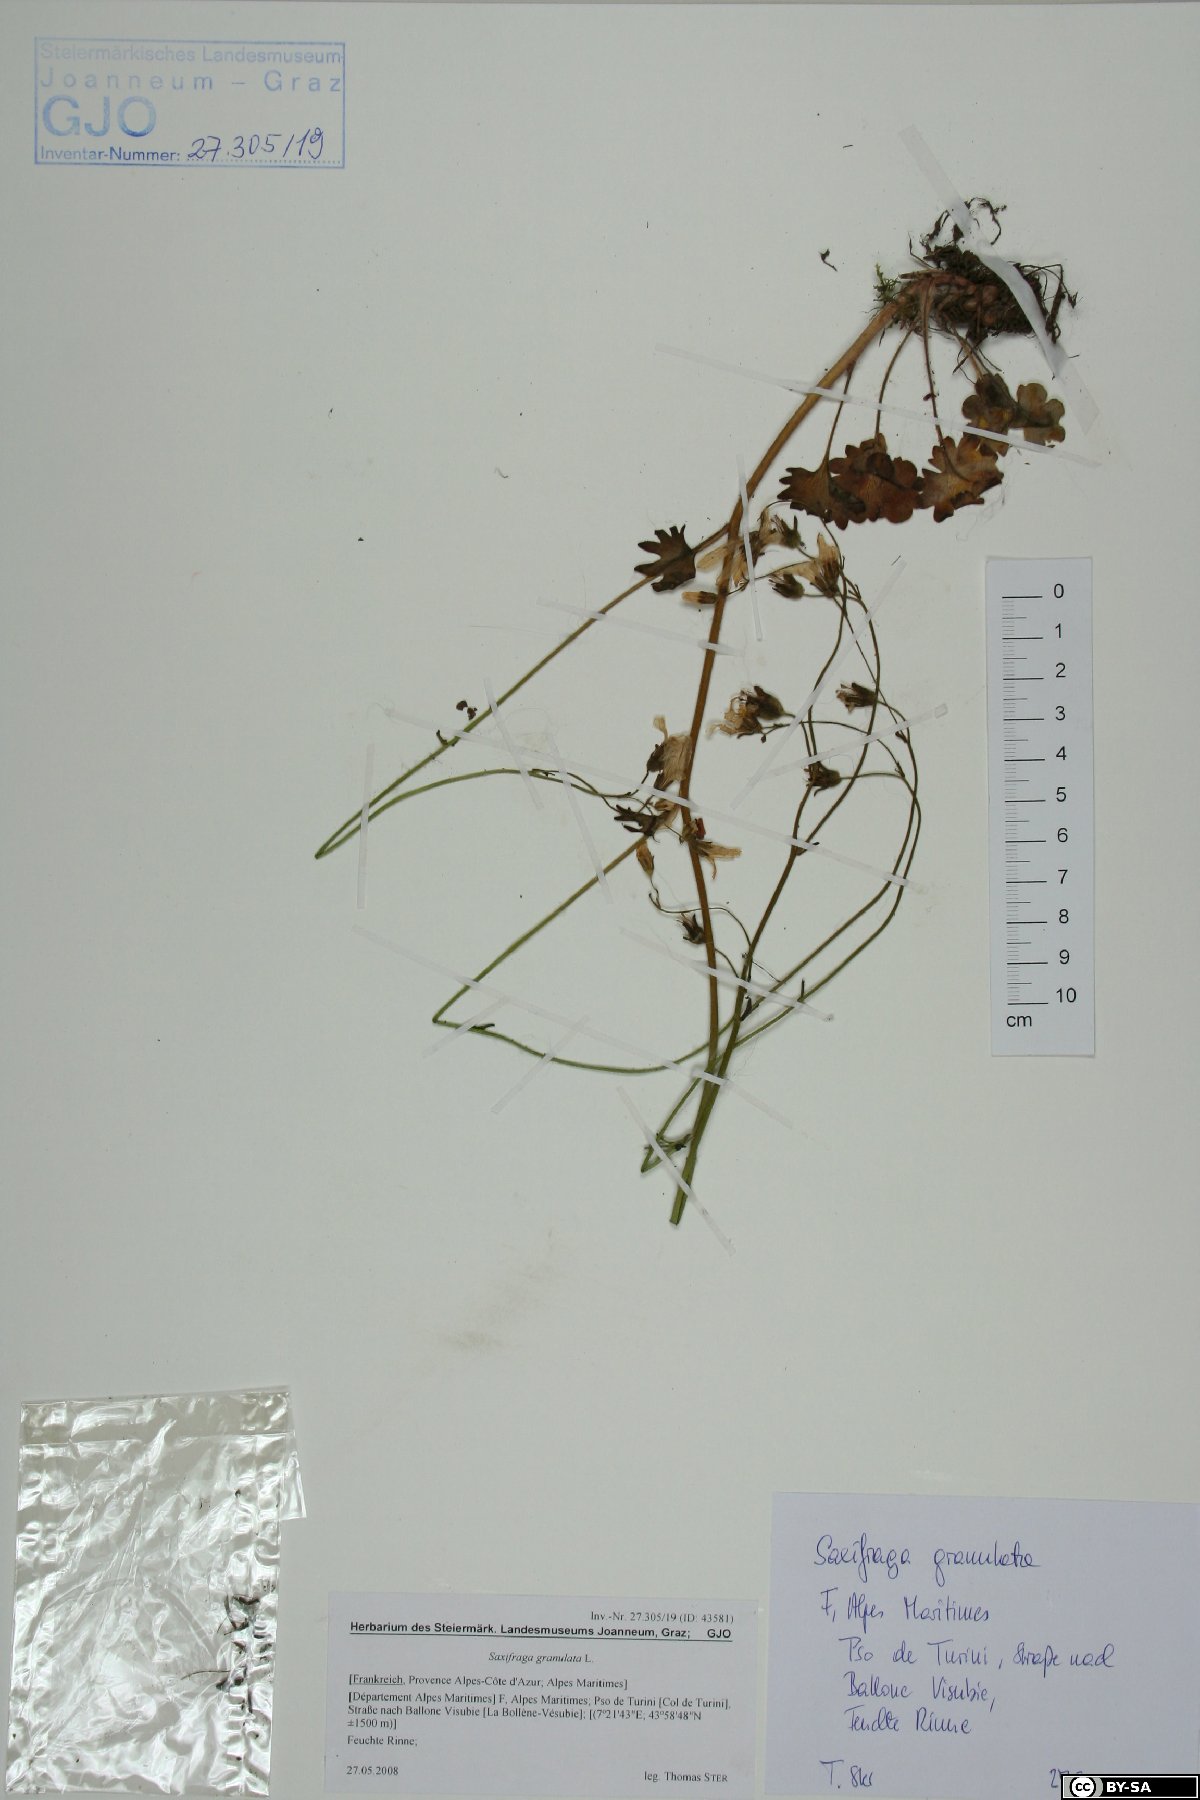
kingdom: Plantae
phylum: Tracheophyta
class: Magnoliopsida
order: Saxifragales
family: Saxifragaceae
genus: Saxifraga
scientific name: Saxifraga granulata
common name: Meadow saxifrage
